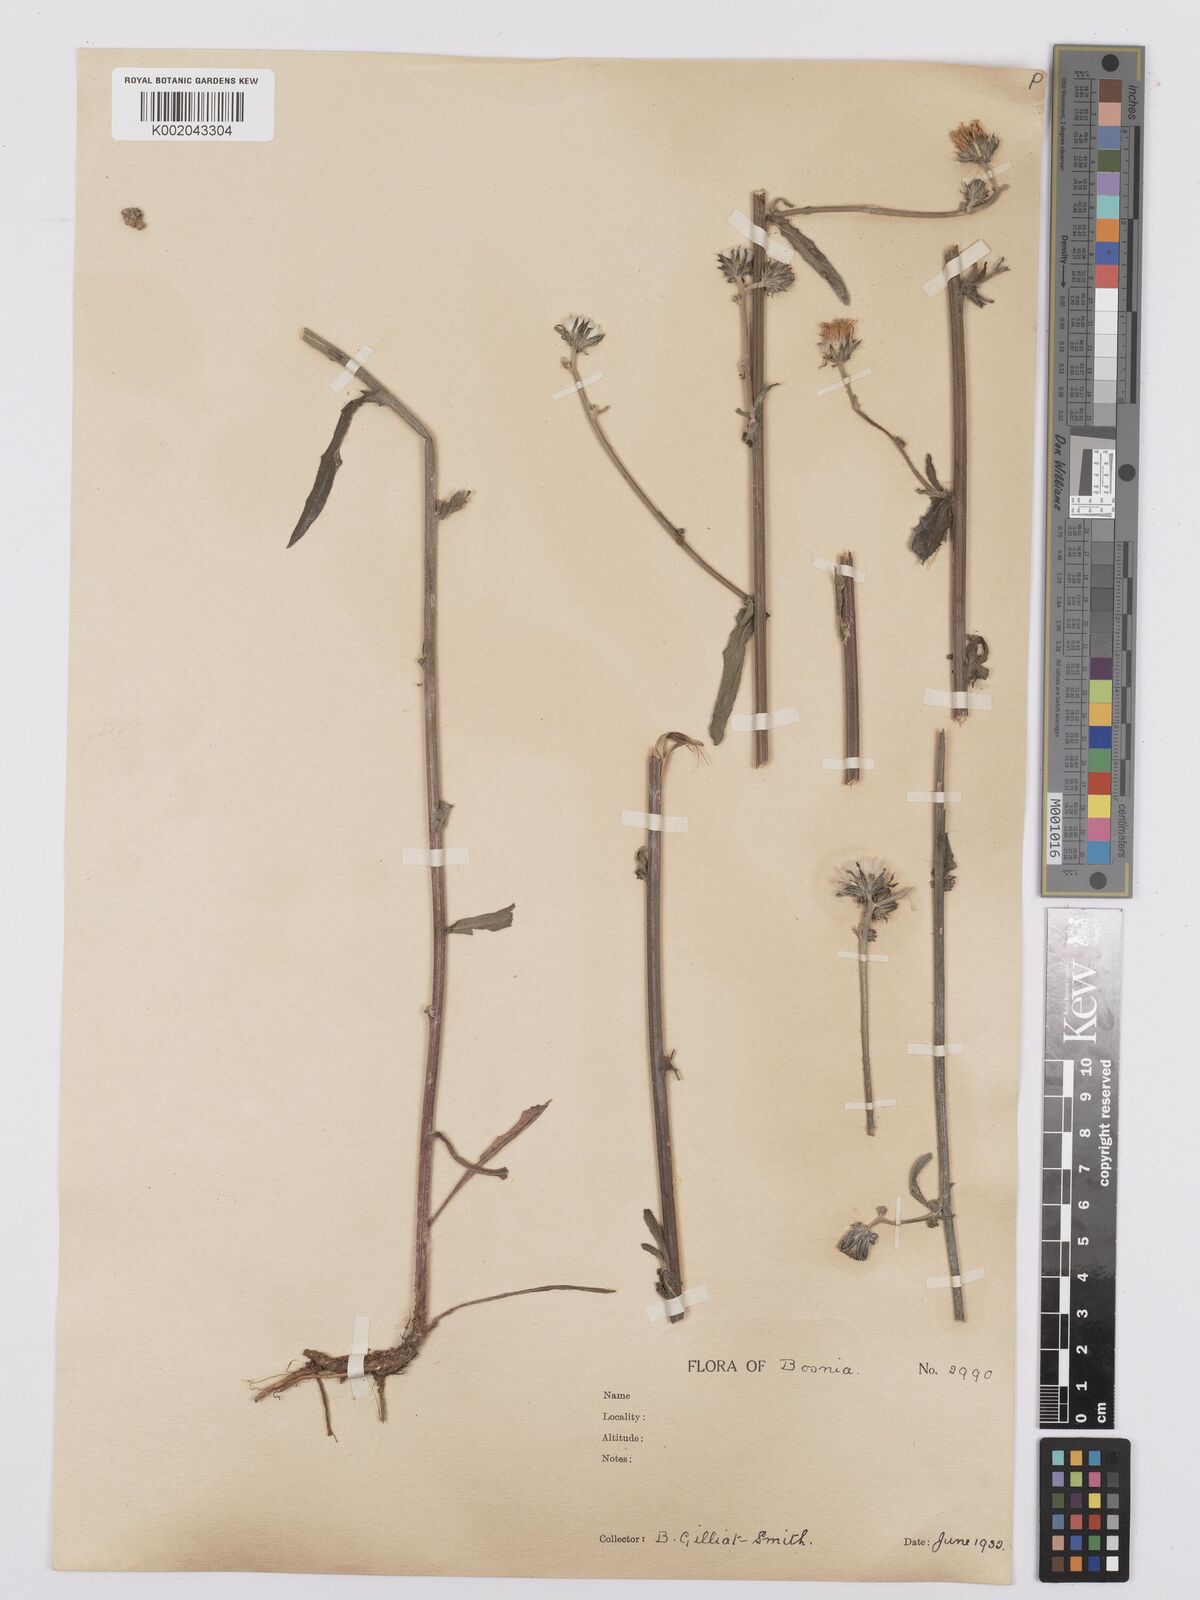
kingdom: Plantae
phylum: Tracheophyta
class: Magnoliopsida
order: Asterales
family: Asteraceae
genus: Picris
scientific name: Picris hieracioides
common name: Hawkweed oxtongue
